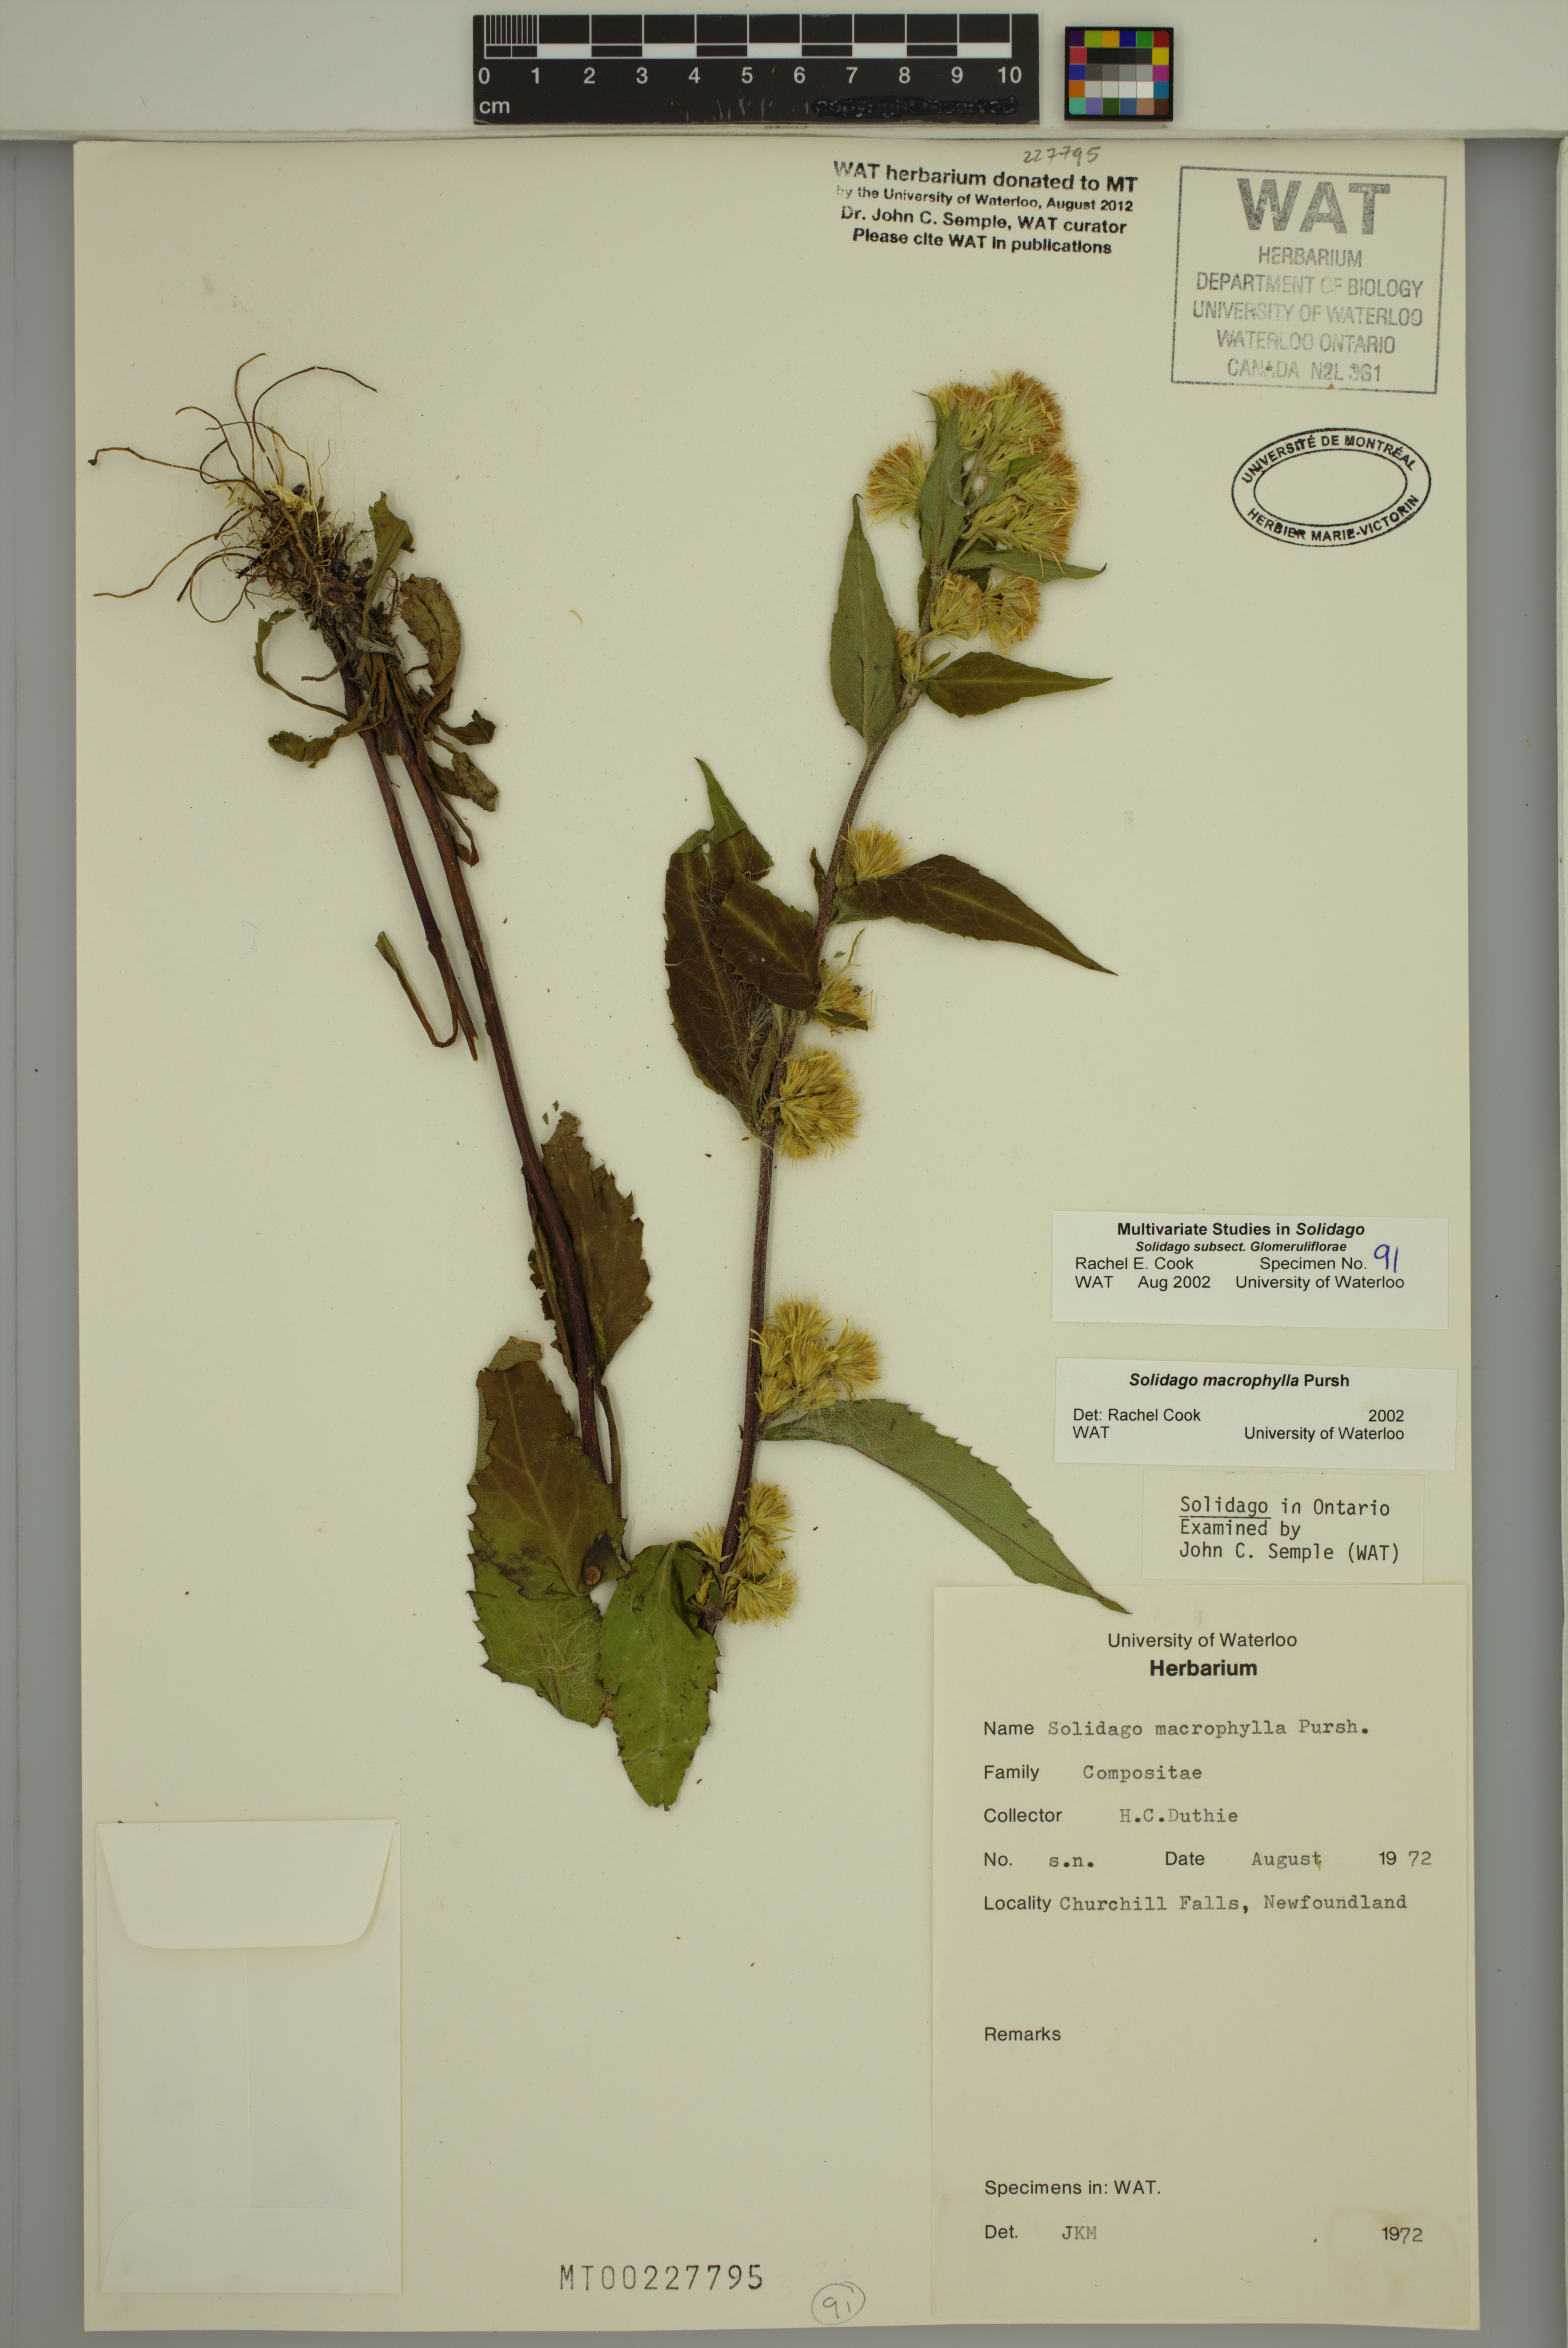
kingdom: Plantae
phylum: Tracheophyta
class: Magnoliopsida
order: Asterales
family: Asteraceae
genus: Solidago
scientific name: Solidago macrophylla
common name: Large-leaved goldenrod
